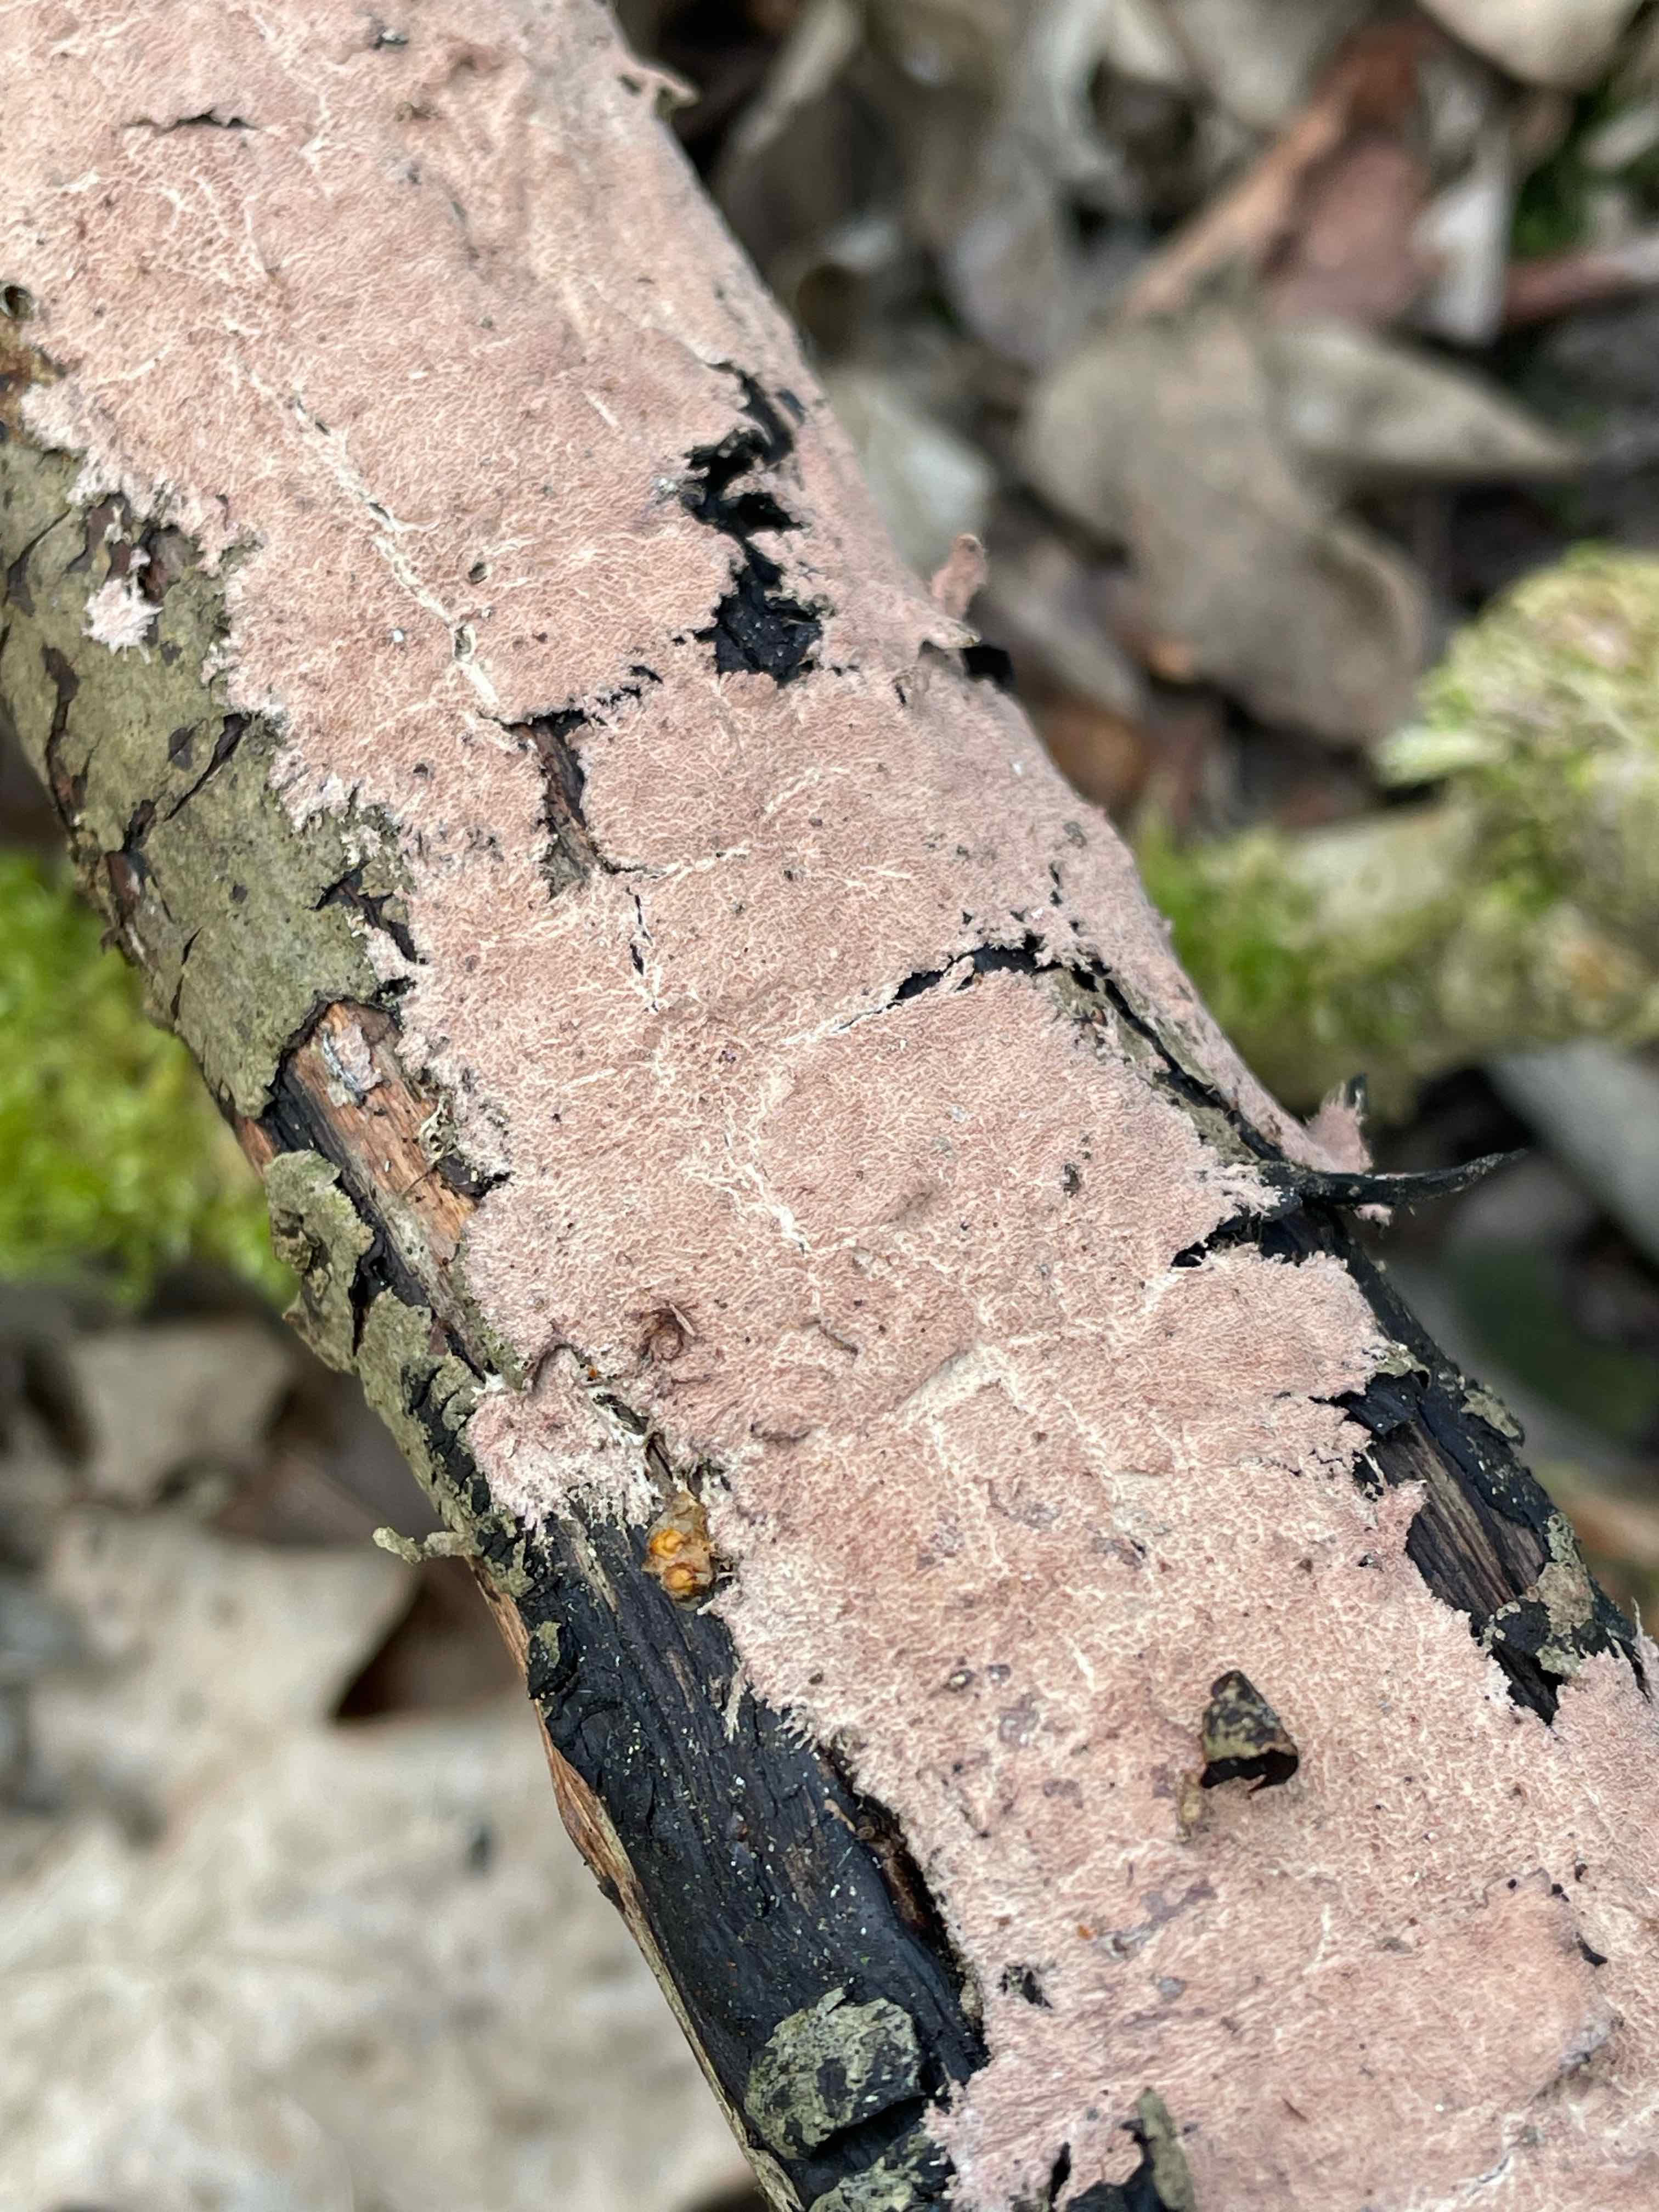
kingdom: Fungi
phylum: Basidiomycota
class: Agaricomycetes
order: Polyporales
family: Steccherinaceae
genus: Steccherinum
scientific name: Steccherinum fimbriatum
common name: trådet skønpig
